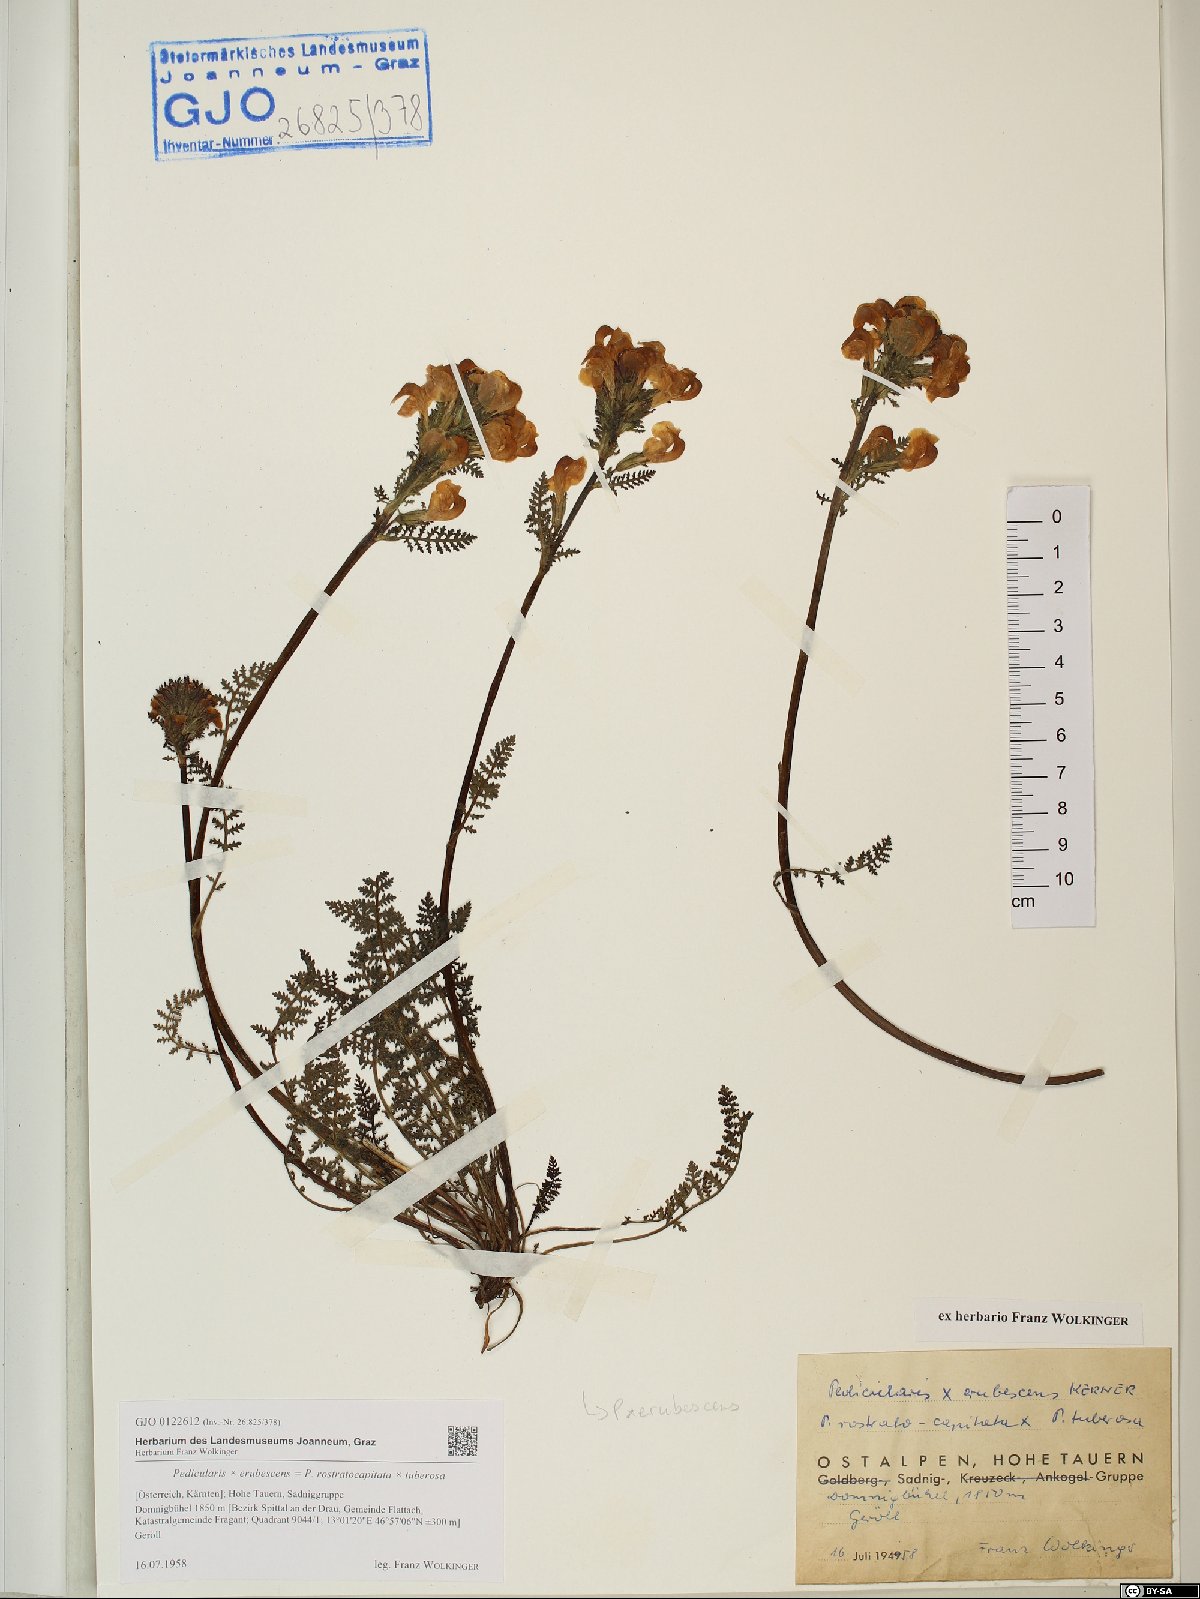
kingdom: Plantae
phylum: Tracheophyta
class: Magnoliopsida
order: Lamiales
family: Scrophulariaceae
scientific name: Scrophulariaceae
